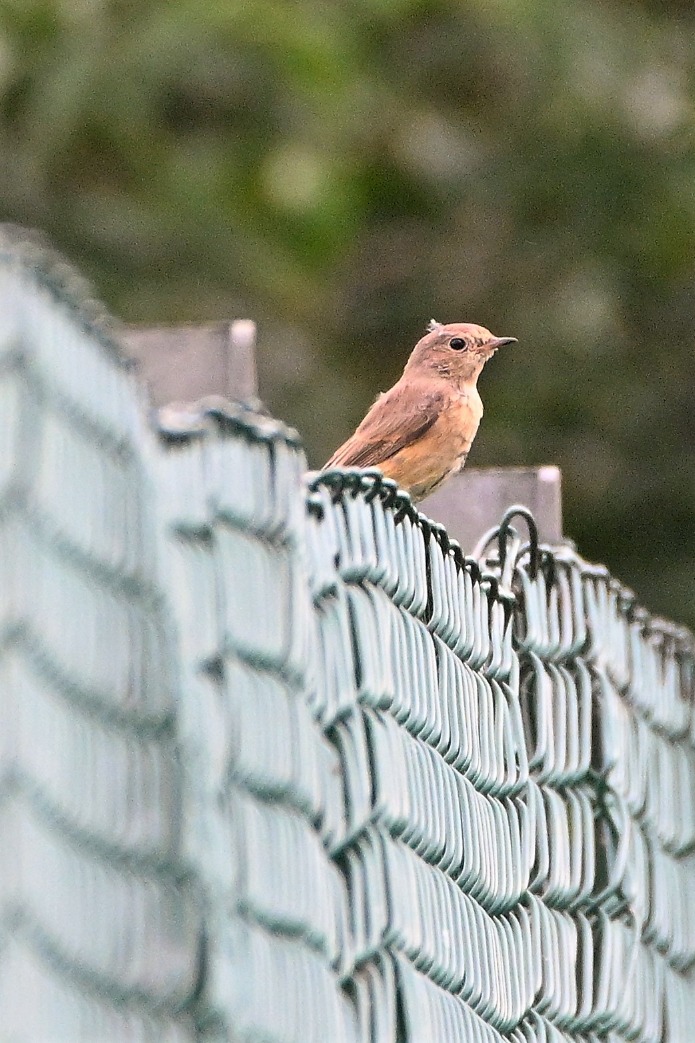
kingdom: Animalia
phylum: Chordata
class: Aves
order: Passeriformes
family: Muscicapidae
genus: Phoenicurus
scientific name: Phoenicurus phoenicurus
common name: Rødstjert
